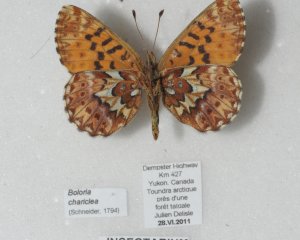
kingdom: Animalia
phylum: Arthropoda
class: Insecta
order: Lepidoptera
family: Nymphalidae
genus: Boloria
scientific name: Boloria chariclea
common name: Arctic Fritillary
